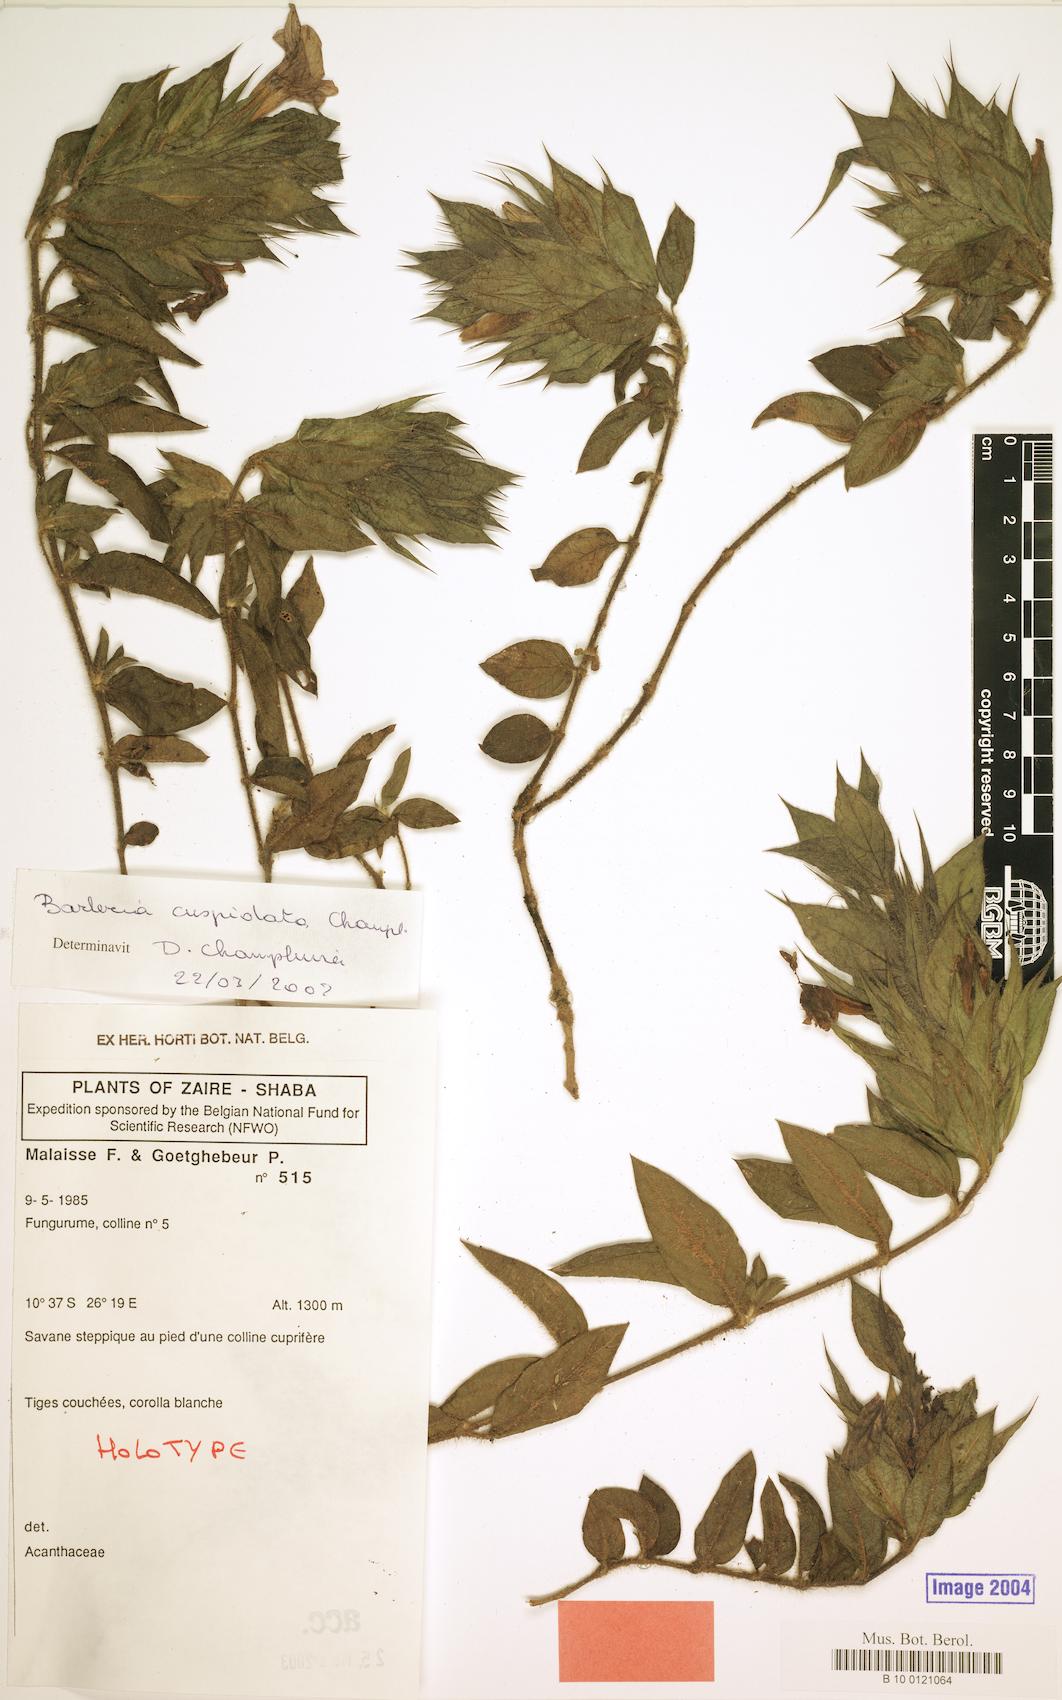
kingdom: Plantae
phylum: Tracheophyta
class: Magnoliopsida
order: Lamiales
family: Acanthaceae
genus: Barleria
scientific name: Barleria cuspidata
